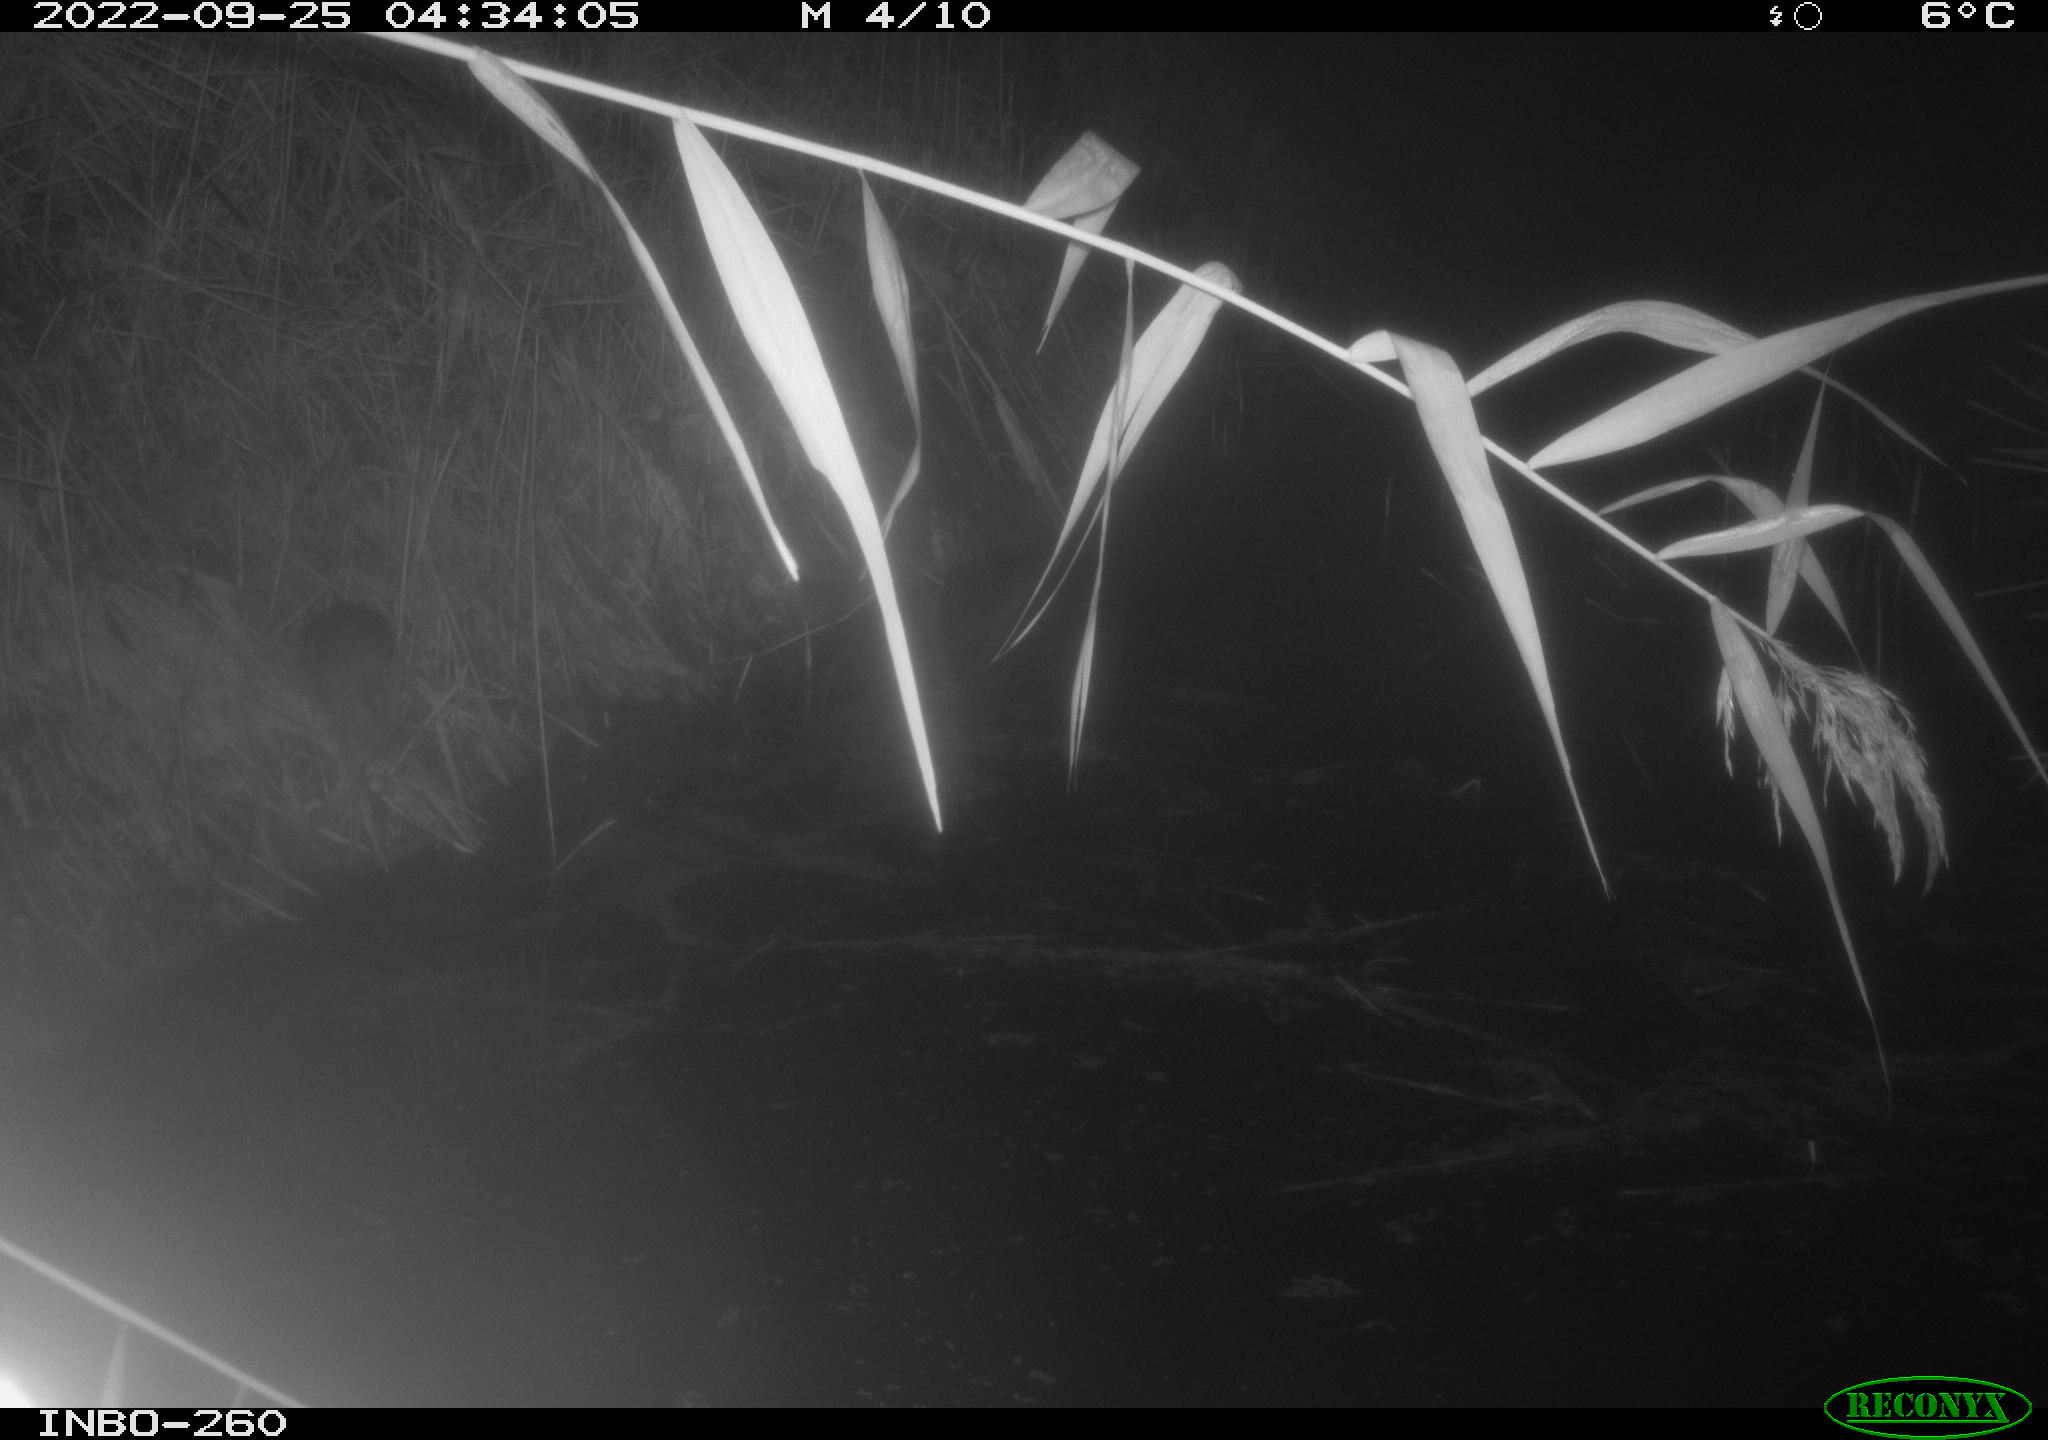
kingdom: Animalia
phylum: Chordata
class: Mammalia
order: Rodentia
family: Muridae
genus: Rattus
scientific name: Rattus norvegicus
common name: Brown rat
